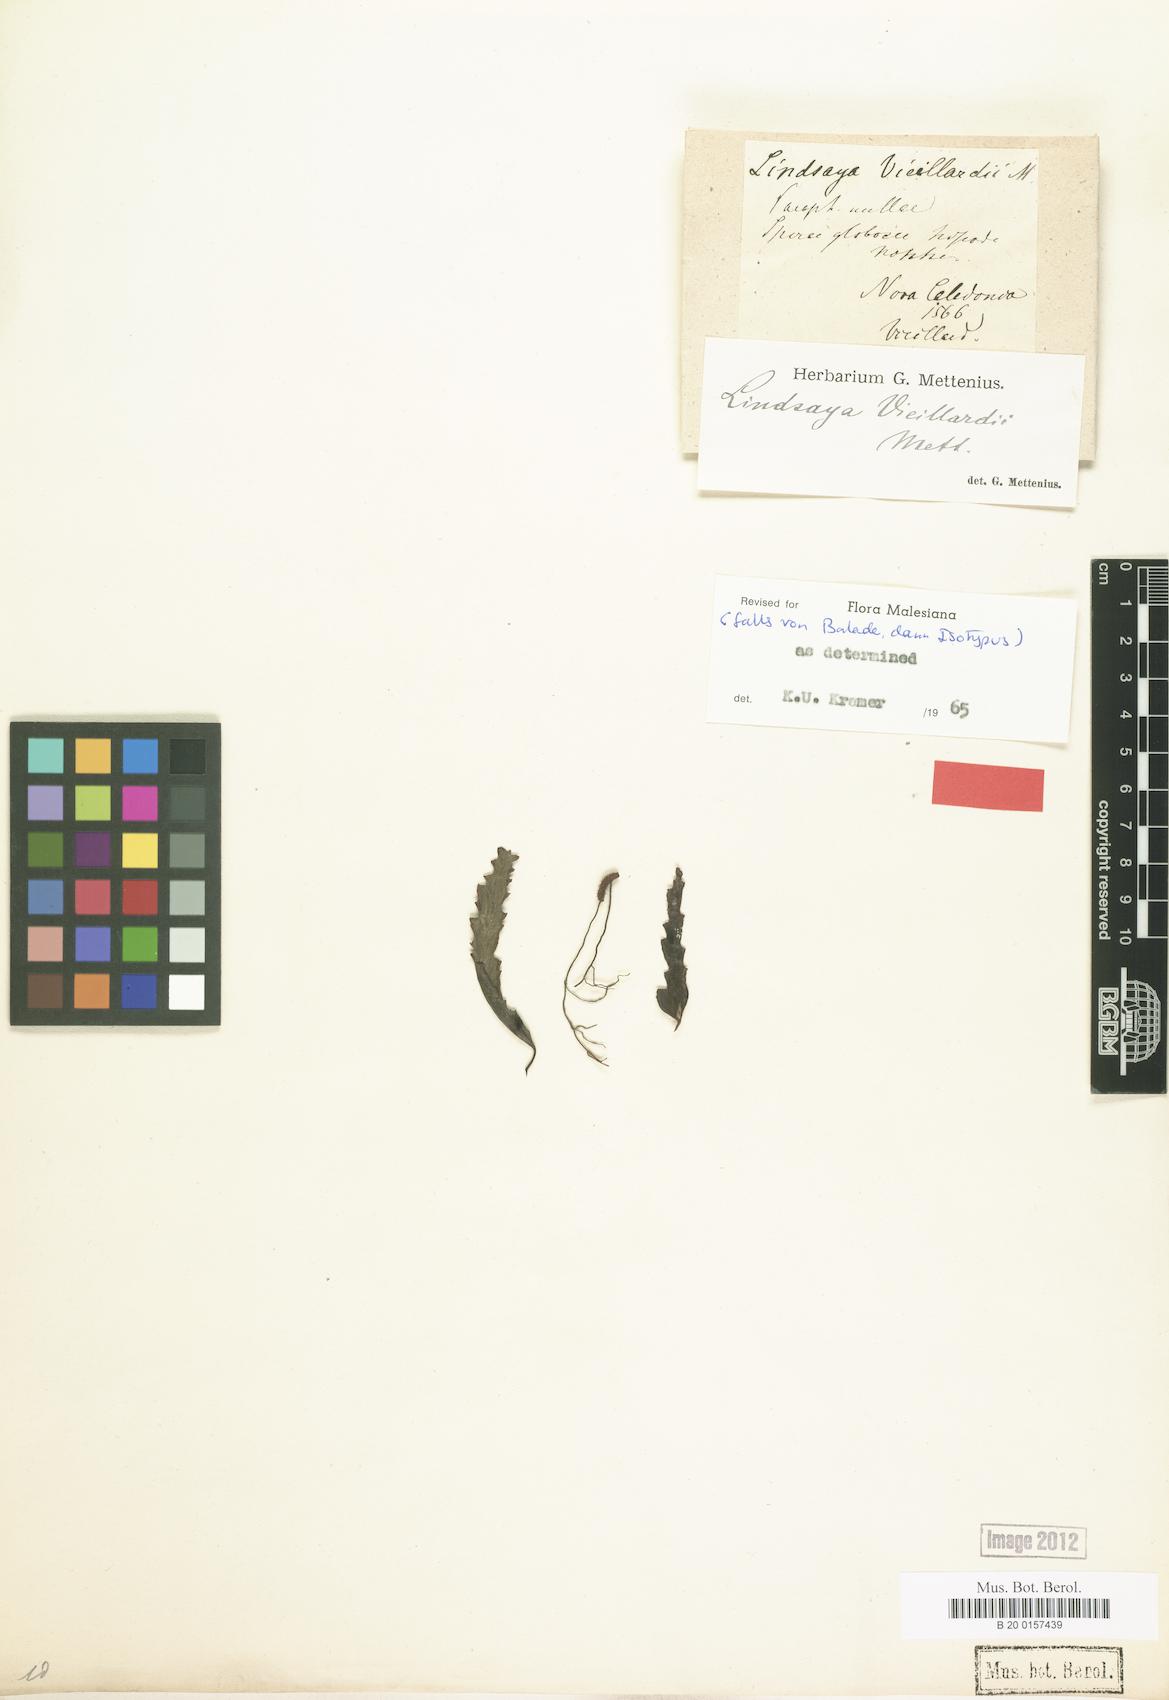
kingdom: Plantae
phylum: Tracheophyta
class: Polypodiopsida
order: Polypodiales
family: Lindsaeaceae
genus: Lindsaea
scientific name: Lindsaea vieillardii
